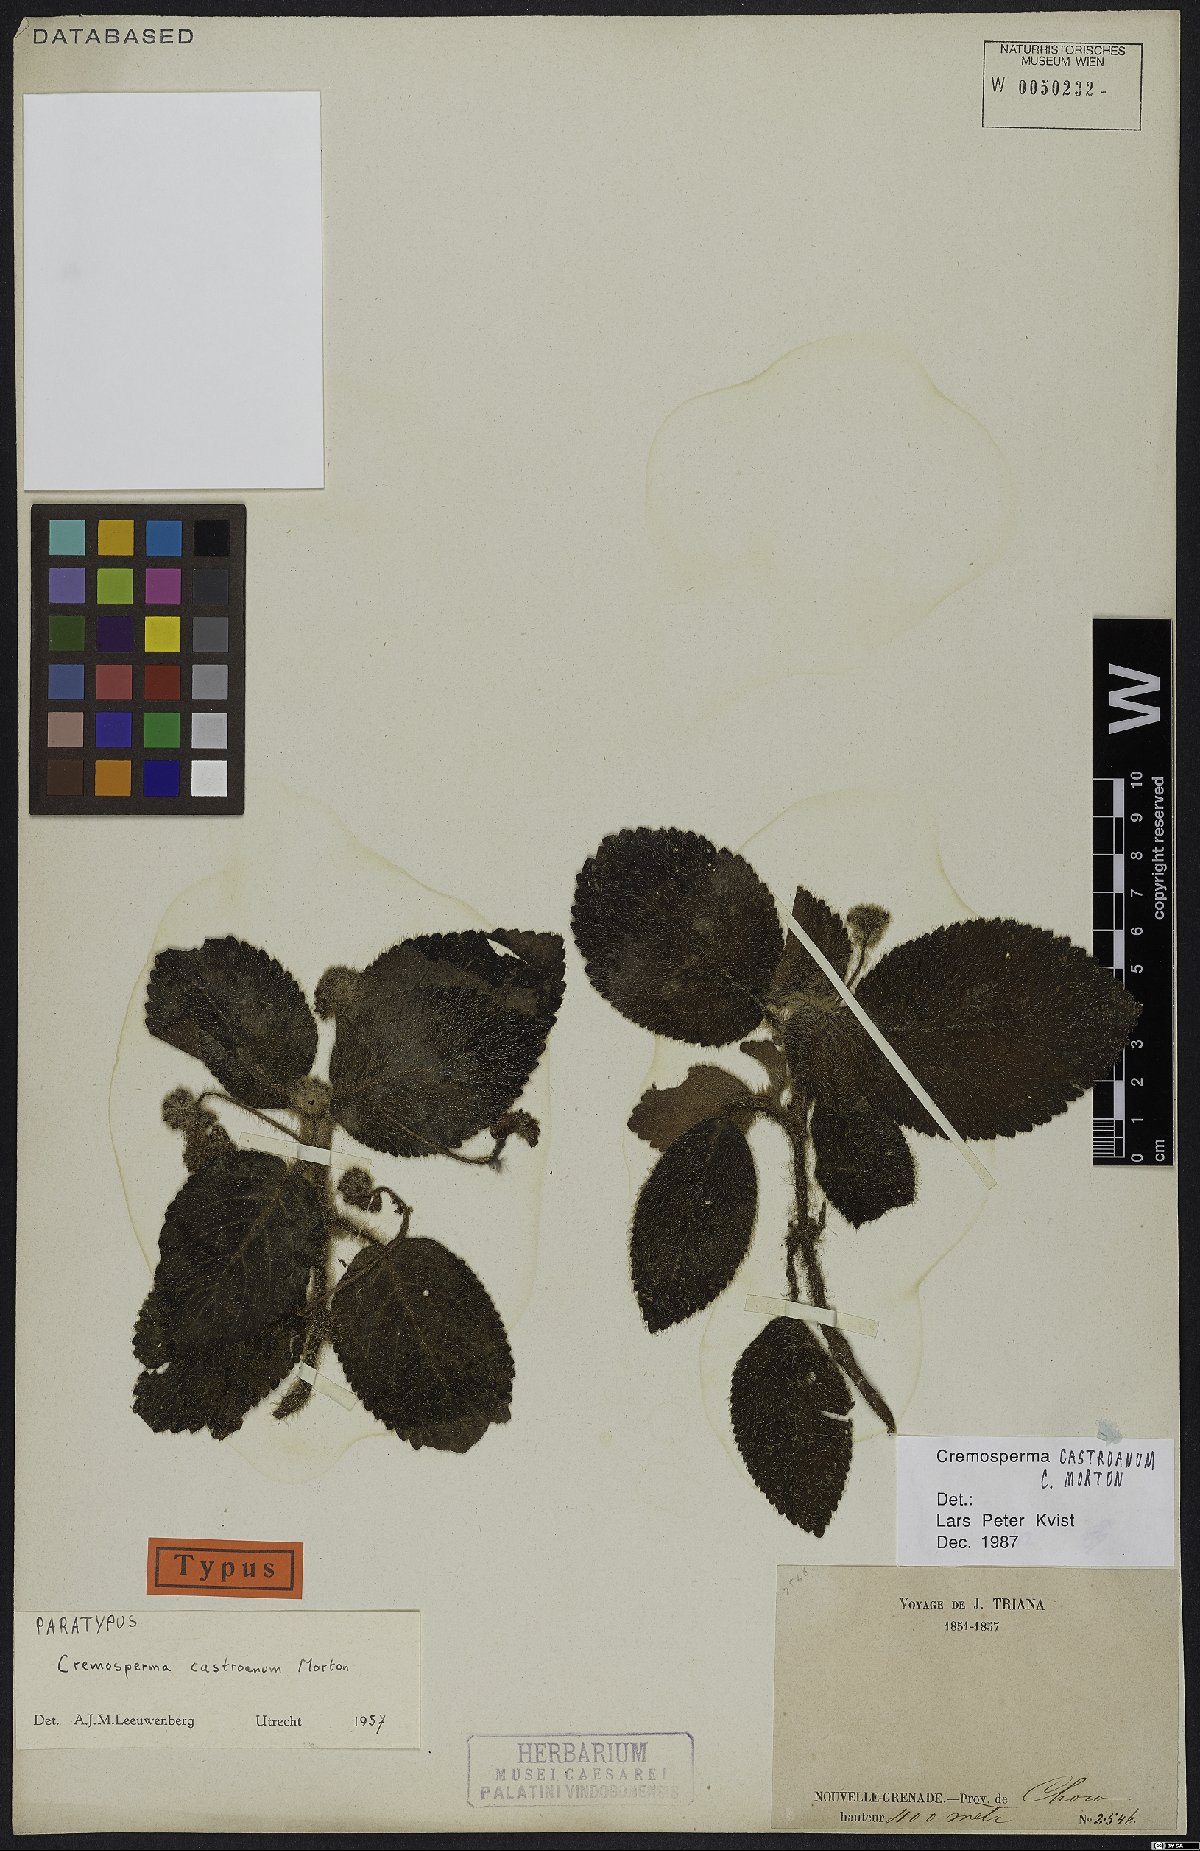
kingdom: Plantae
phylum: Tracheophyta
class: Magnoliopsida
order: Lamiales
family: Gesneriaceae
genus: Cremosperma
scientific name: Cremosperma castroanum
